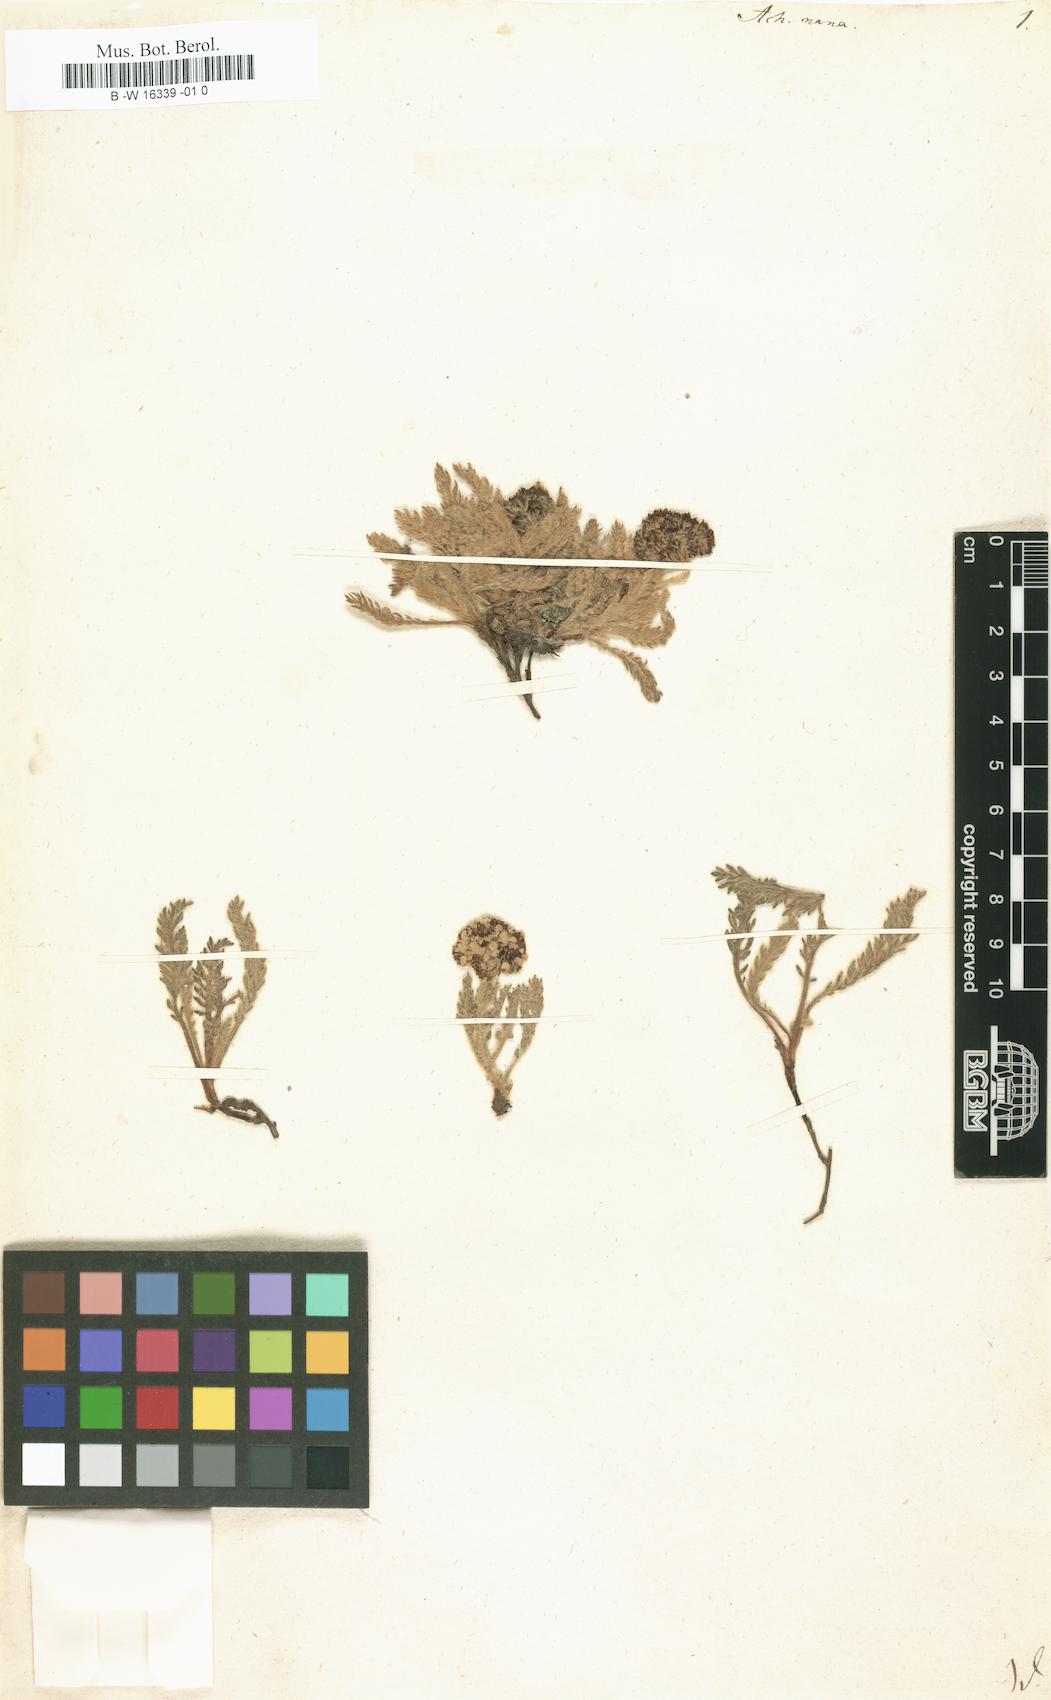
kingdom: Plantae
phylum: Tracheophyta
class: Magnoliopsida
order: Asterales
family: Asteraceae
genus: Achillea
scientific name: Achillea nana
